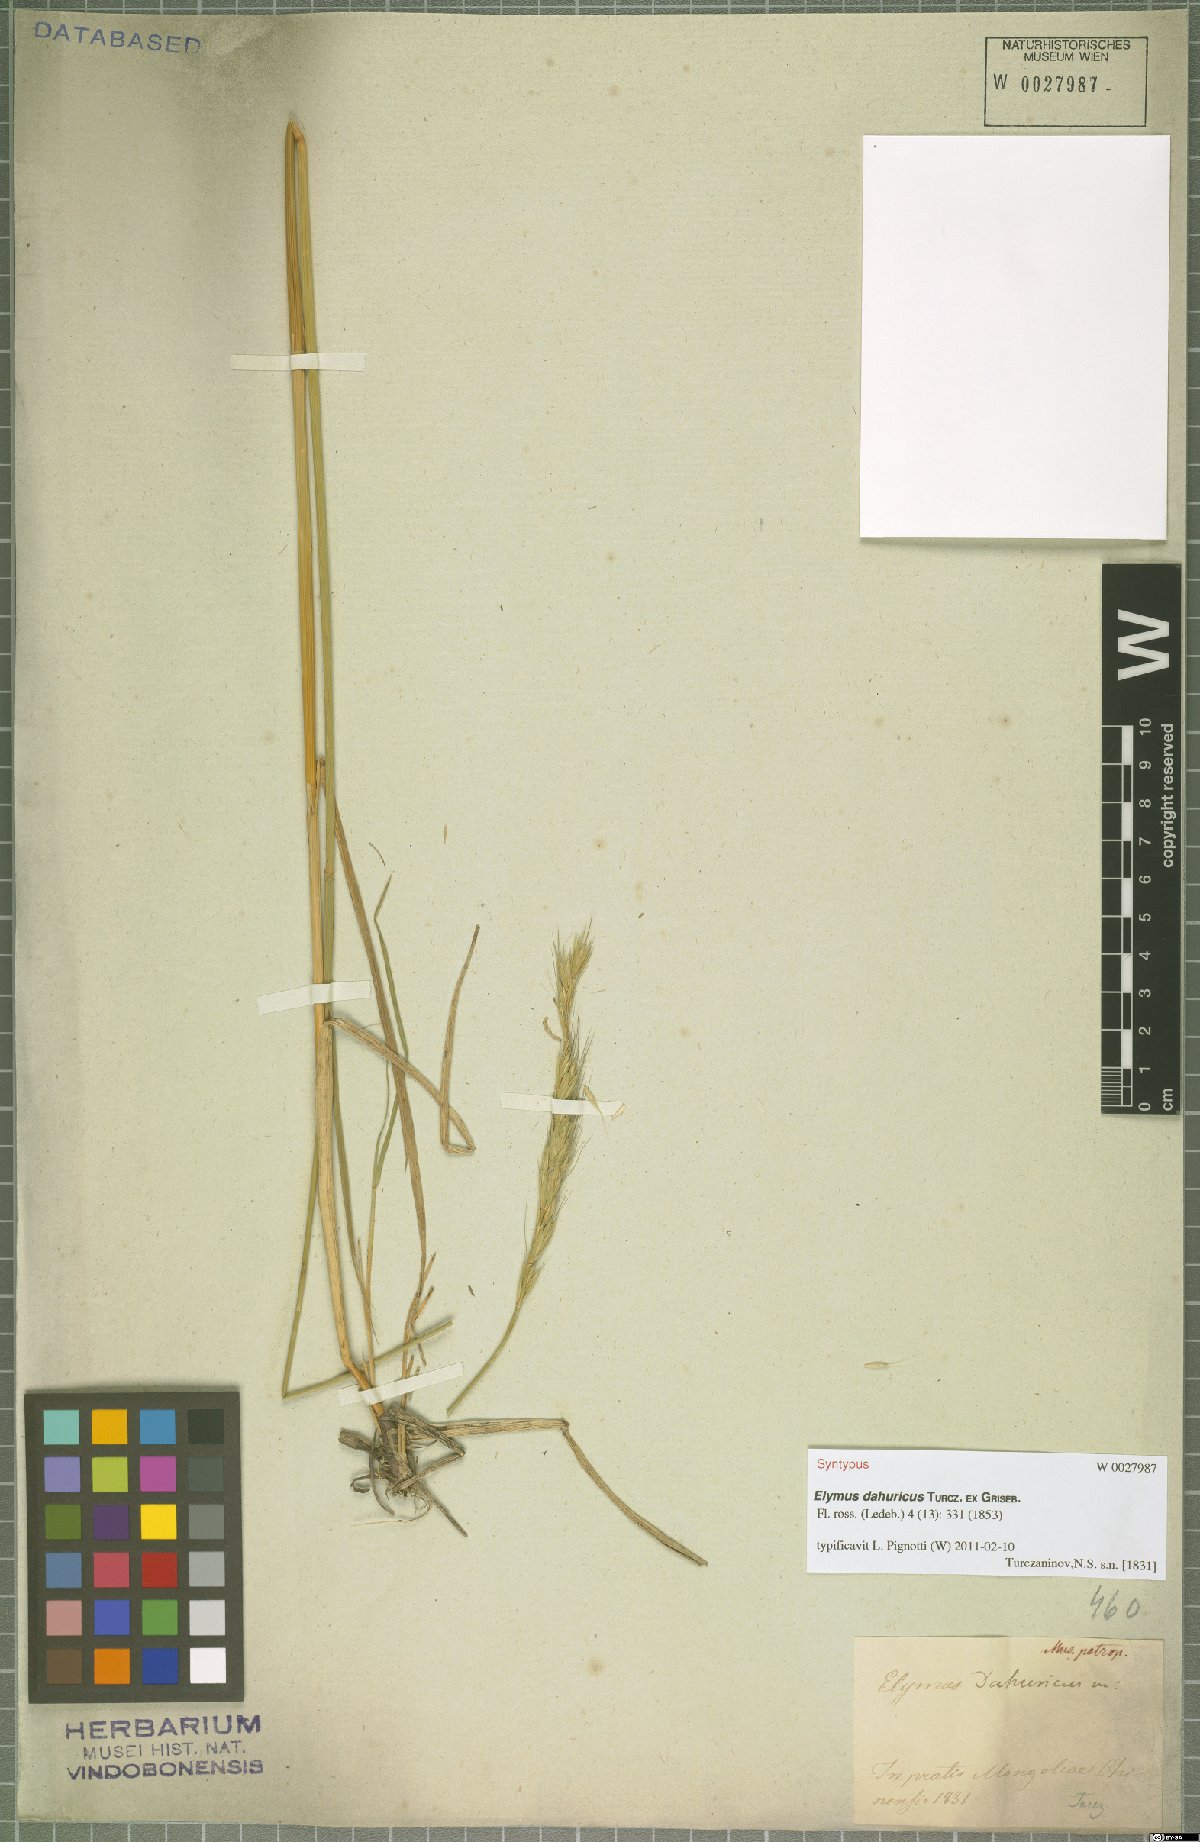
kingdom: Plantae
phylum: Tracheophyta
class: Liliopsida
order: Poales
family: Poaceae
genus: Elymus
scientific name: Elymus dahuricus
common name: Dahurian wild rye
